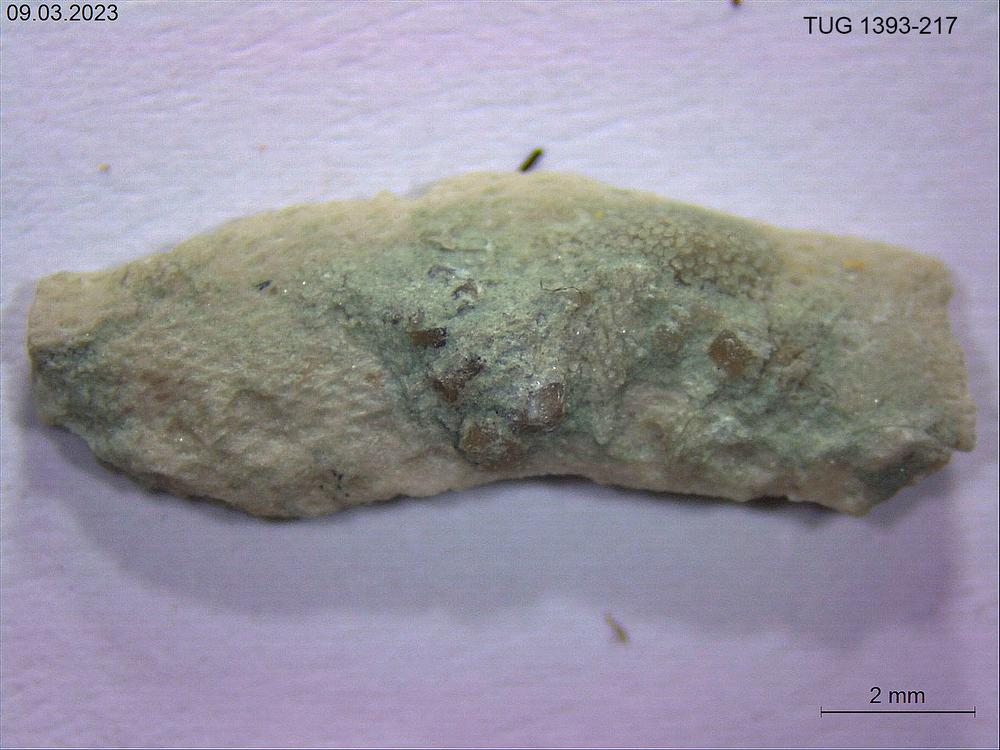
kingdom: Animalia
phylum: Bryozoa
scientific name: Bryozoa
